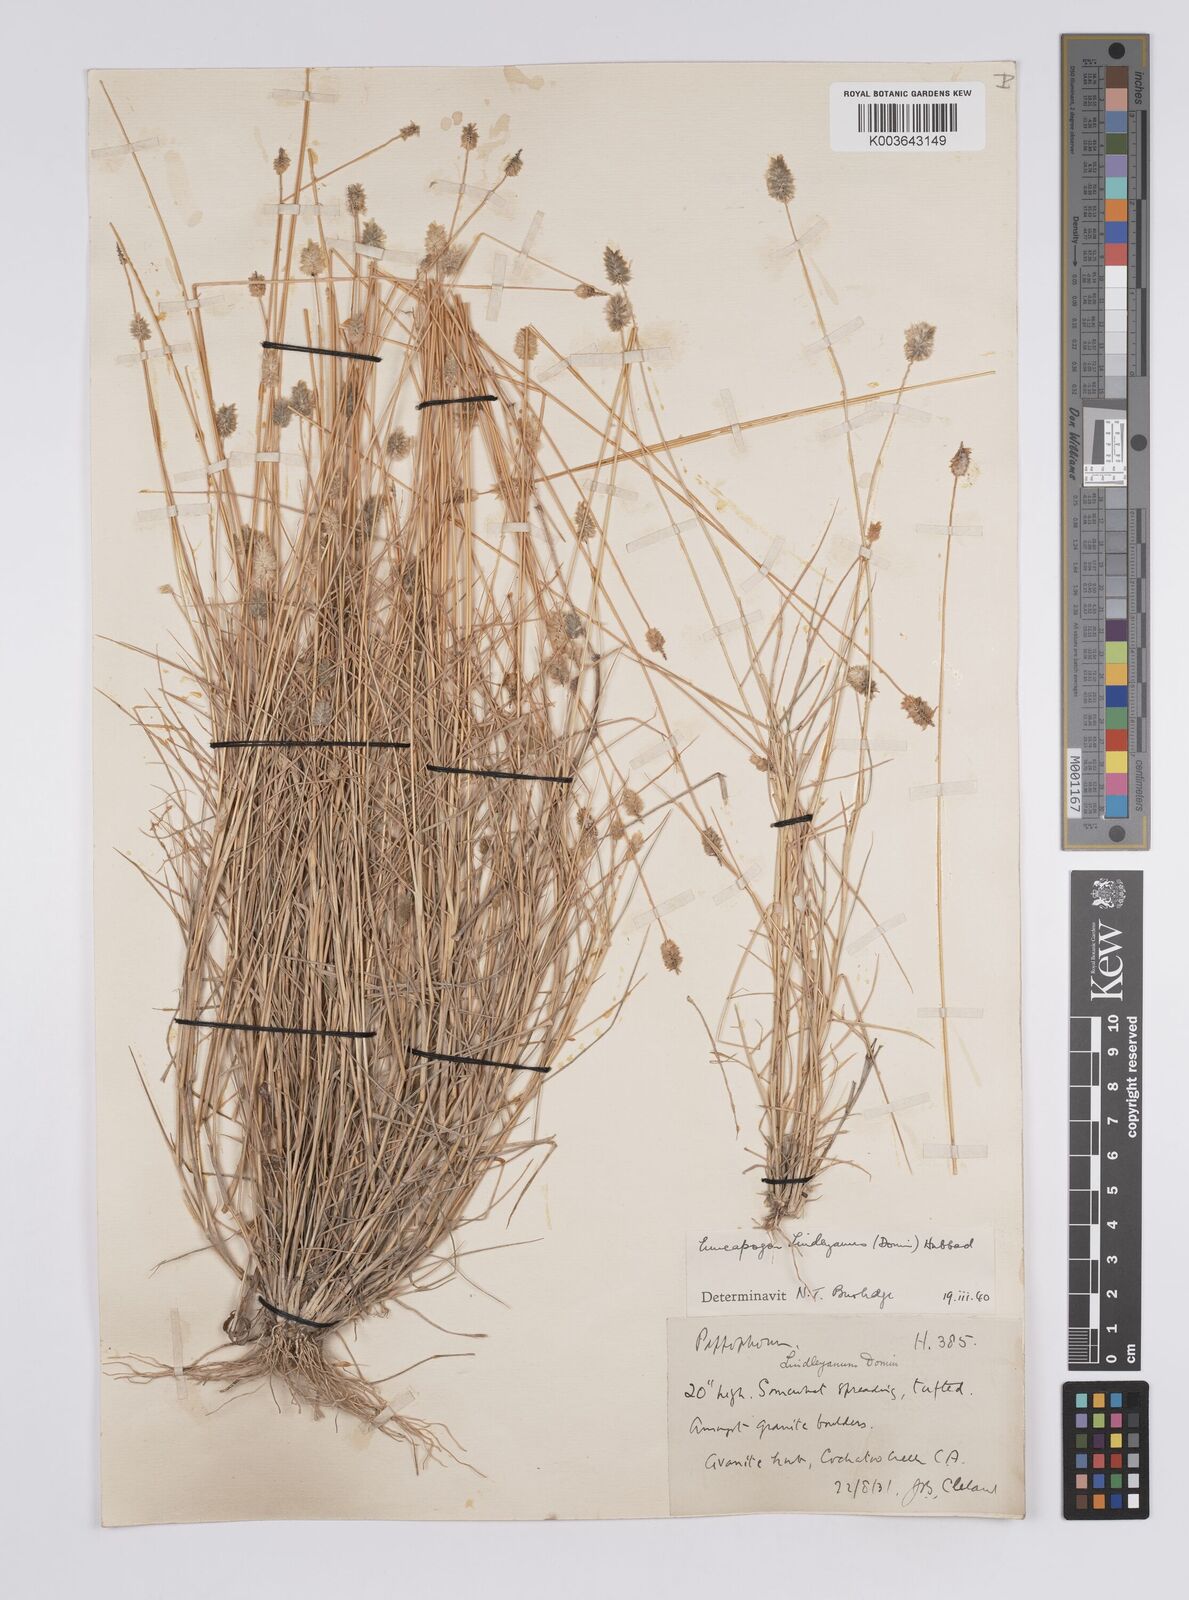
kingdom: Plantae
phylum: Tracheophyta
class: Liliopsida
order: Poales
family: Poaceae
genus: Enneapogon
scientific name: Enneapogon lindleyanus
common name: Conetop nineawn
